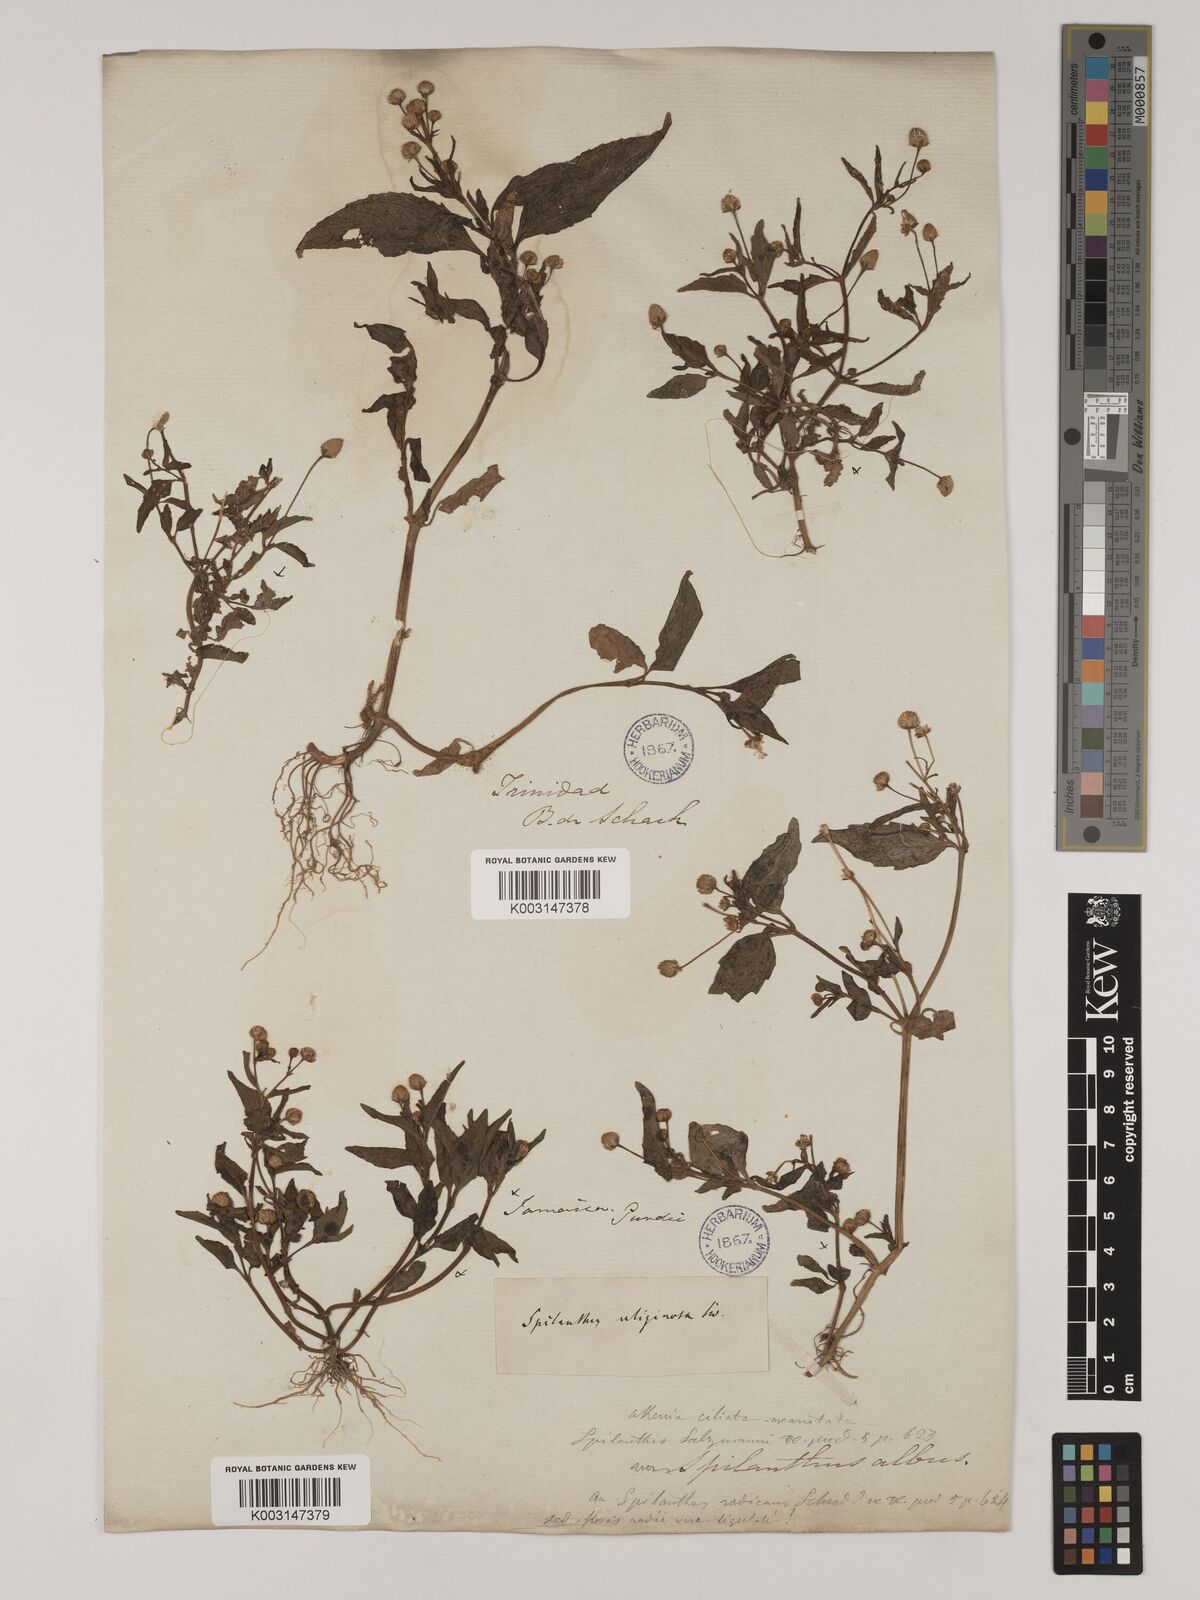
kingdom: Plantae
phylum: Tracheophyta
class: Magnoliopsida
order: Asterales
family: Asteraceae
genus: Acmella
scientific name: Acmella uliginosa
